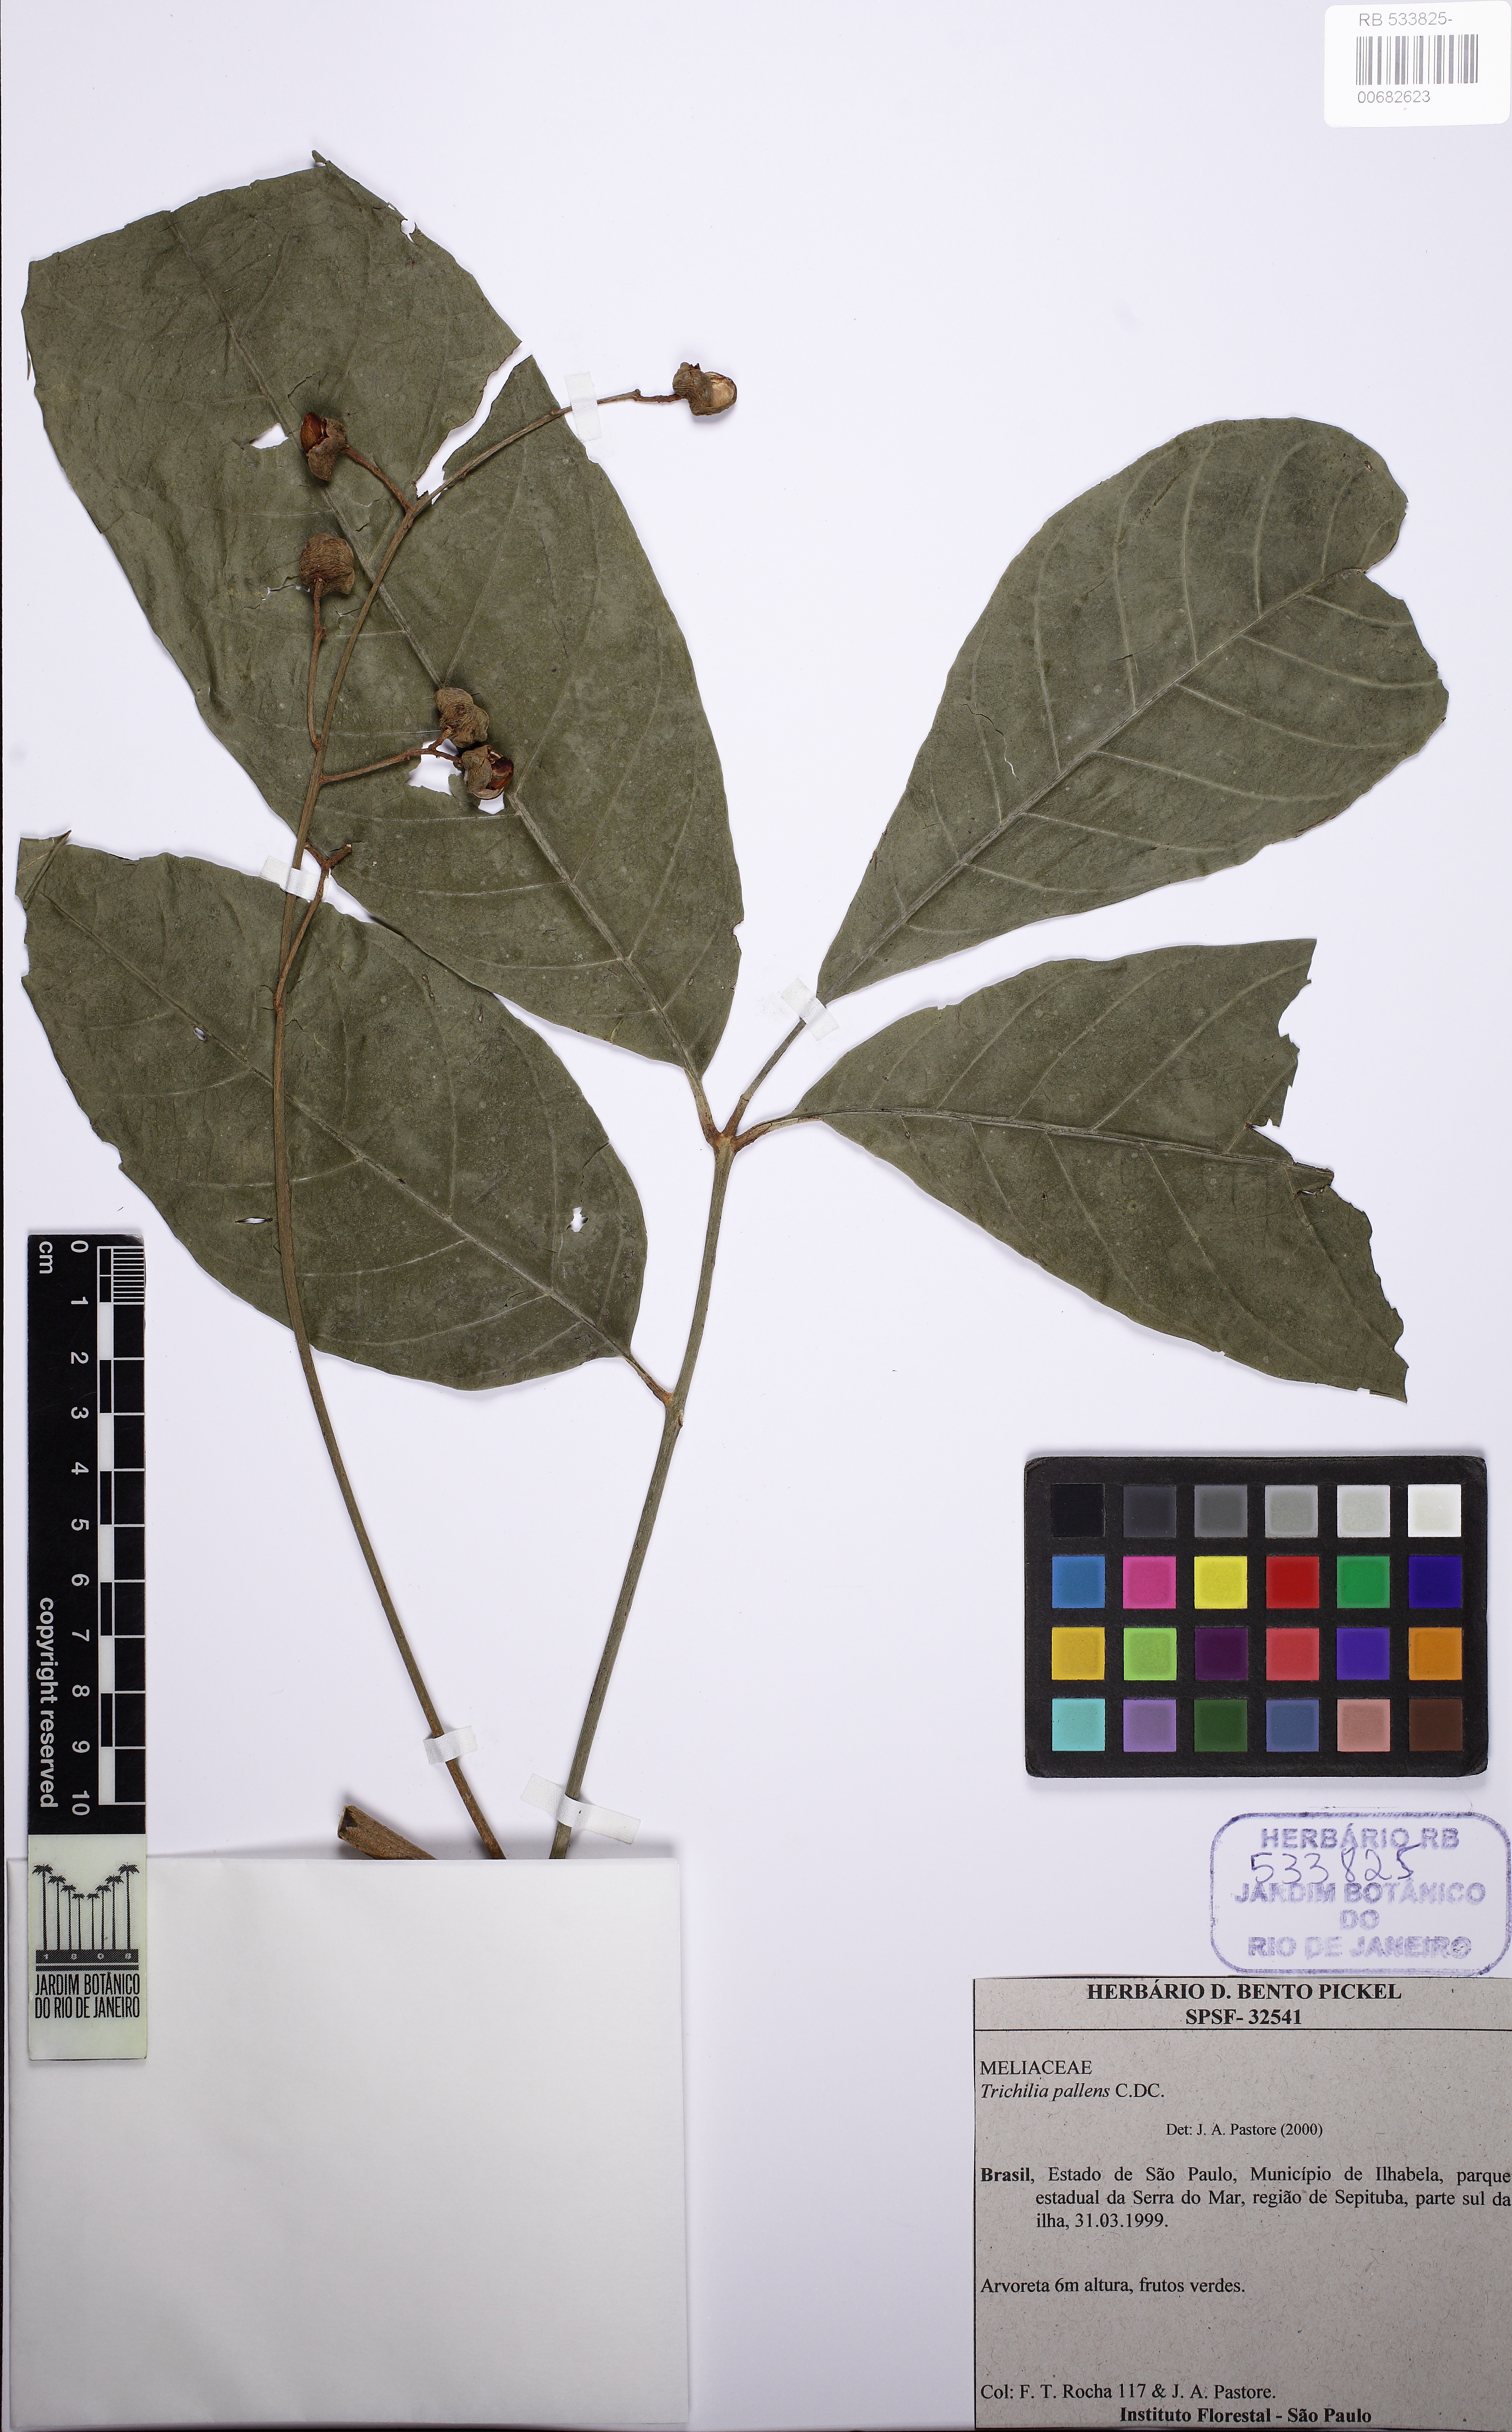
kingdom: Plantae
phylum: Tracheophyta
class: Magnoliopsida
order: Sapindales
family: Meliaceae
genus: Trichilia
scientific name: Trichilia pallens
